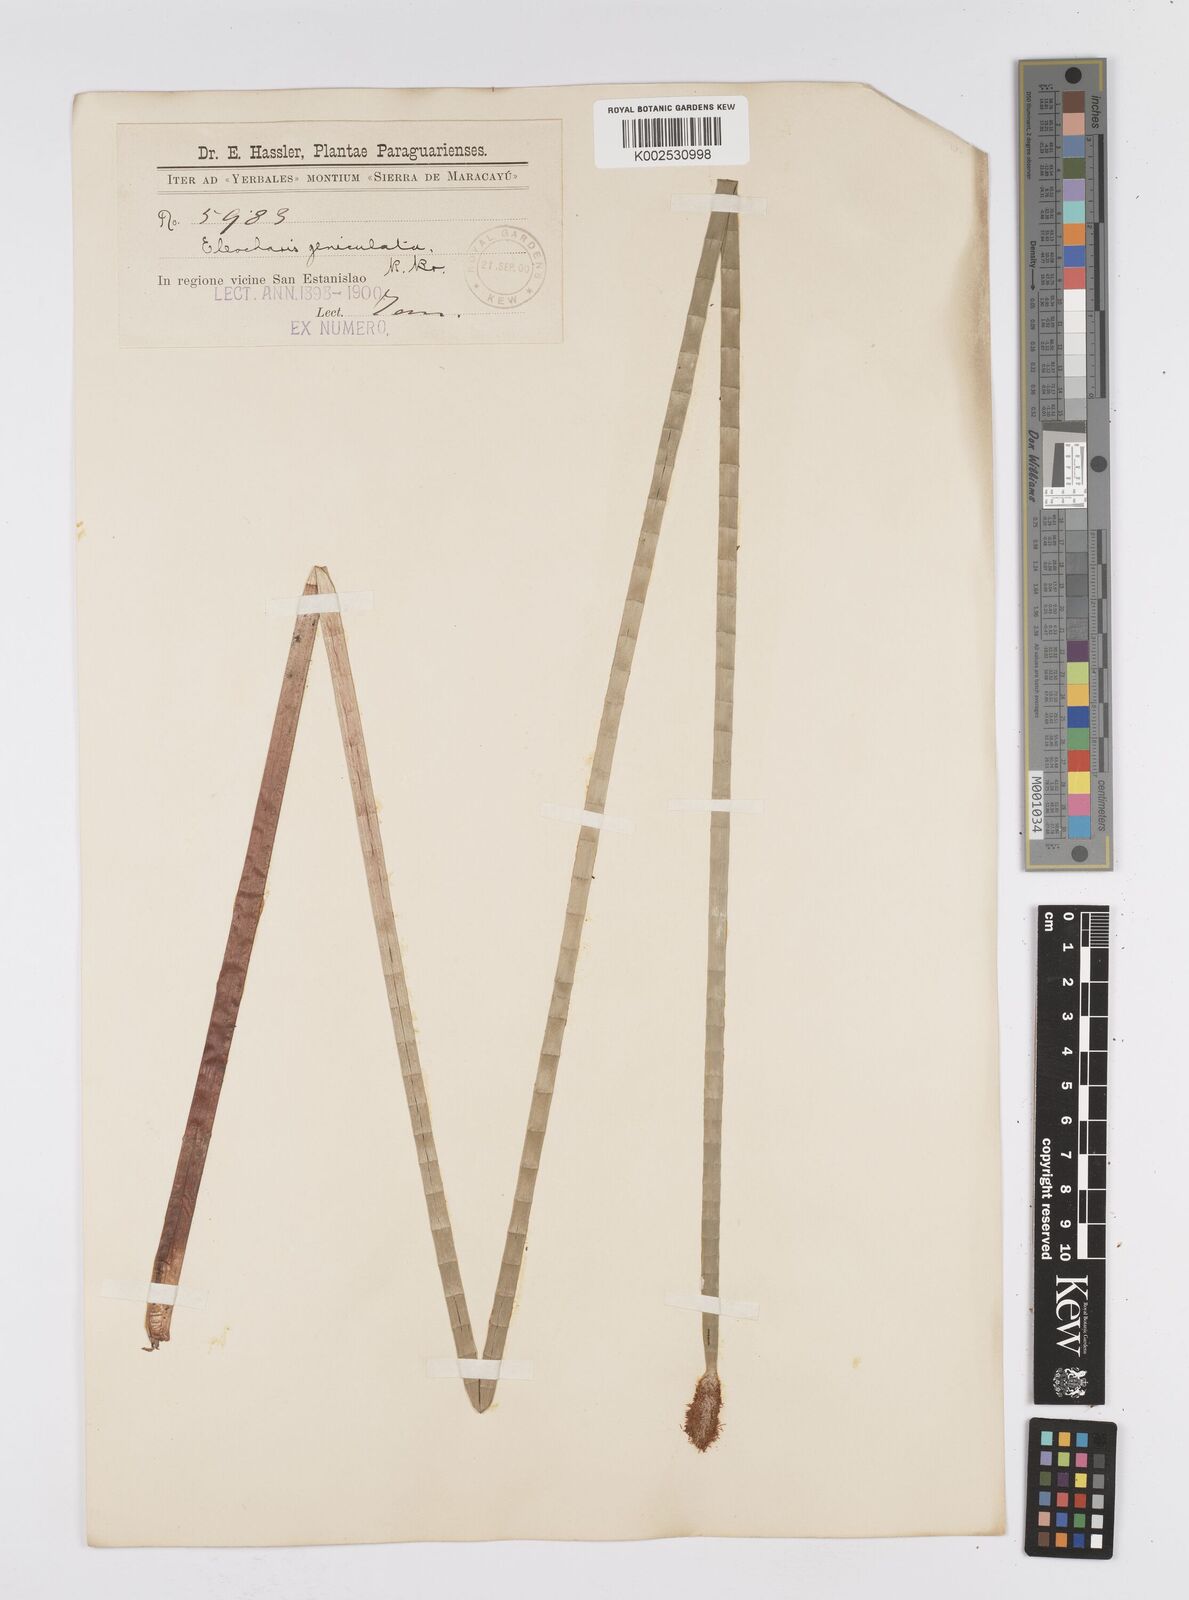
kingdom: Plantae
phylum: Tracheophyta
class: Liliopsida
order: Poales
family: Cyperaceae
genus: Eleocharis
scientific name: Eleocharis elegans
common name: Elegant spike-rush
